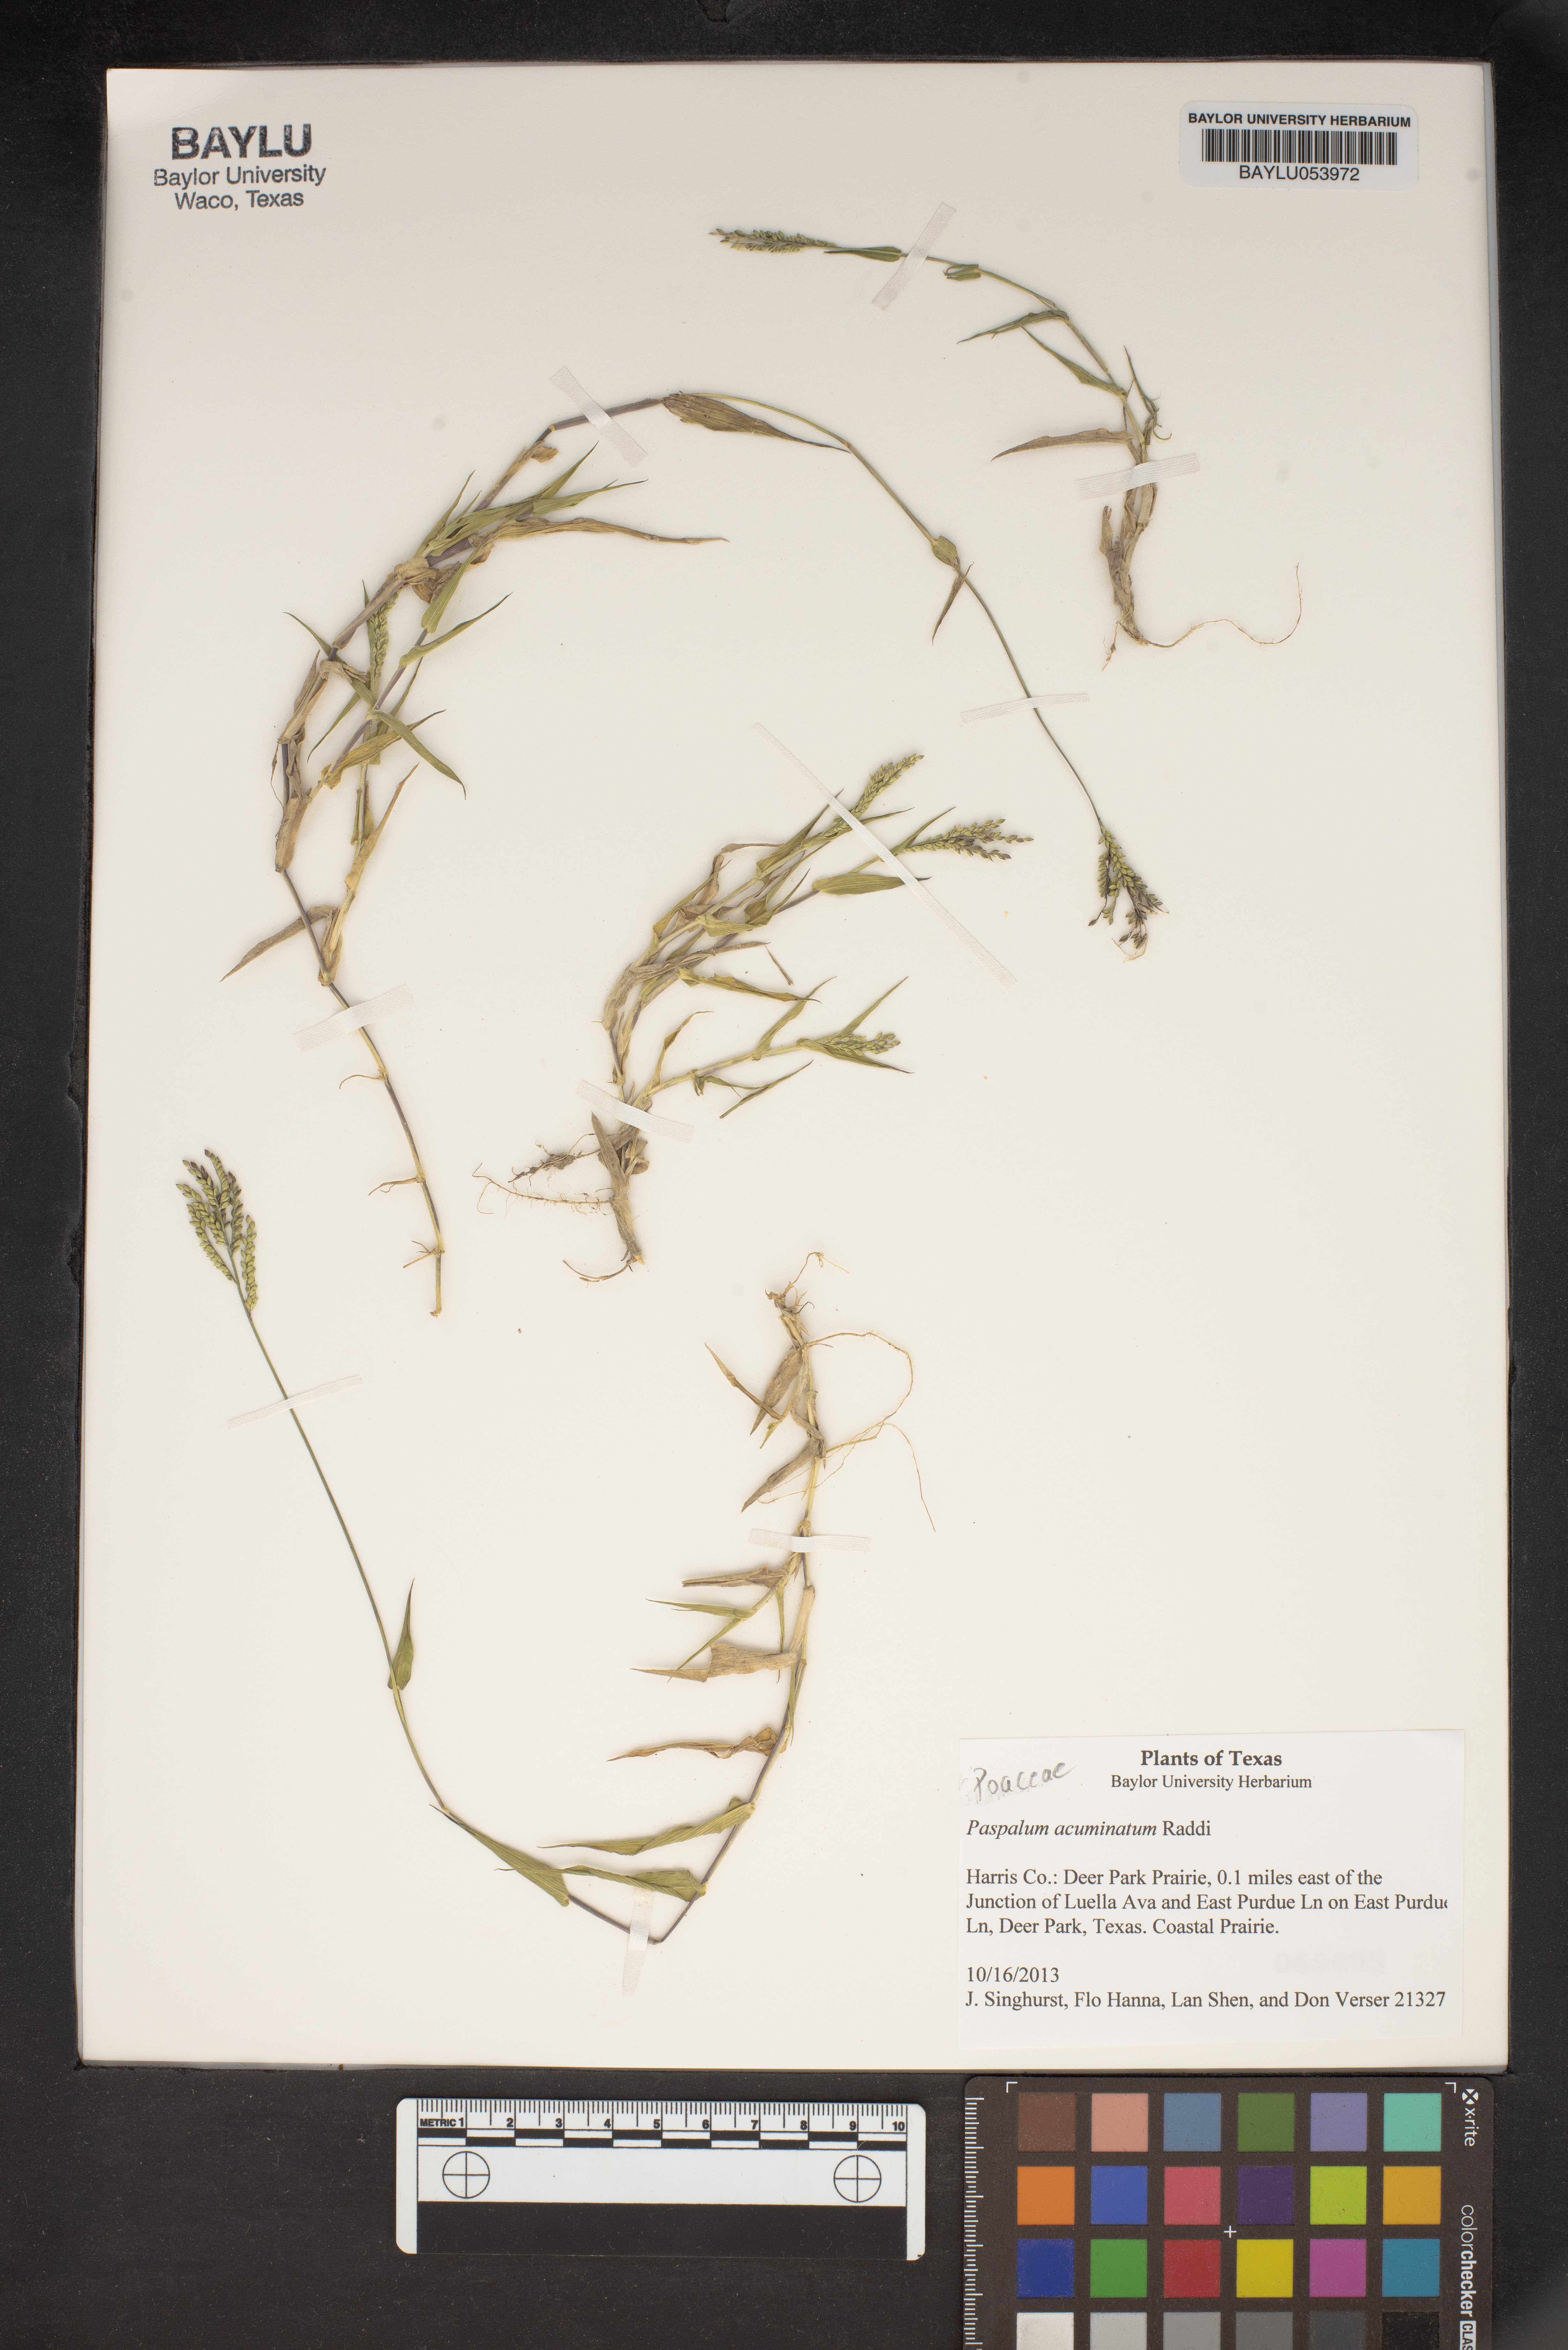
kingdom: Plantae
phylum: Tracheophyta
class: Liliopsida
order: Poales
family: Poaceae
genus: Paspalum
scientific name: Paspalum acuminatum
